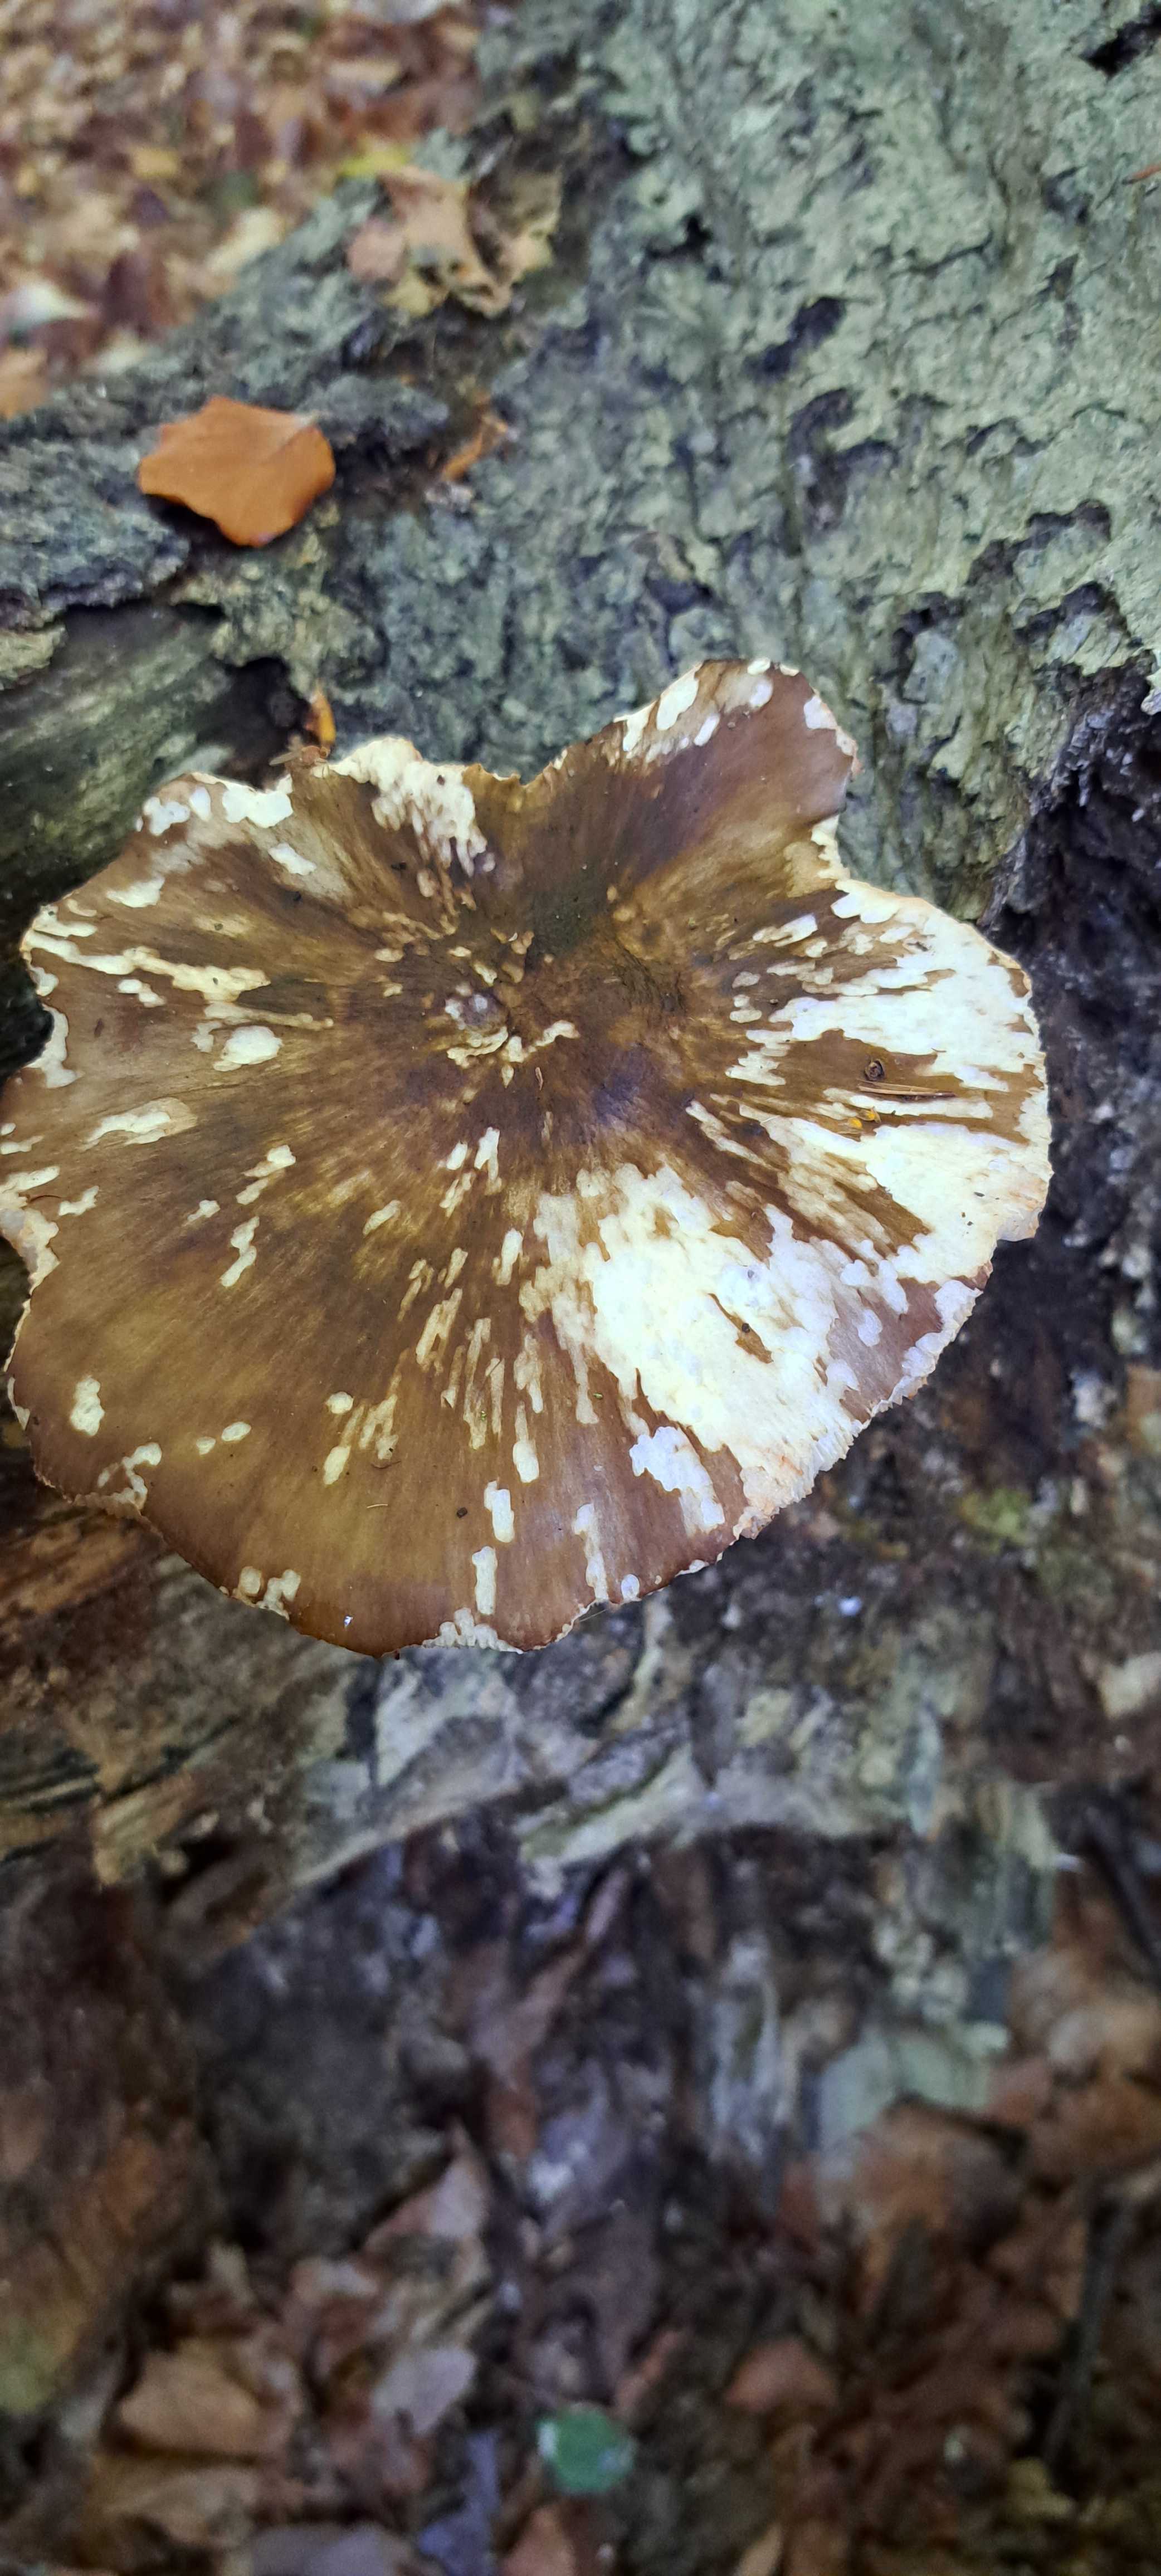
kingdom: Fungi
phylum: Basidiomycota
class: Agaricomycetes
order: Agaricales
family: Pluteaceae
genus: Pluteus
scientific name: Pluteus
